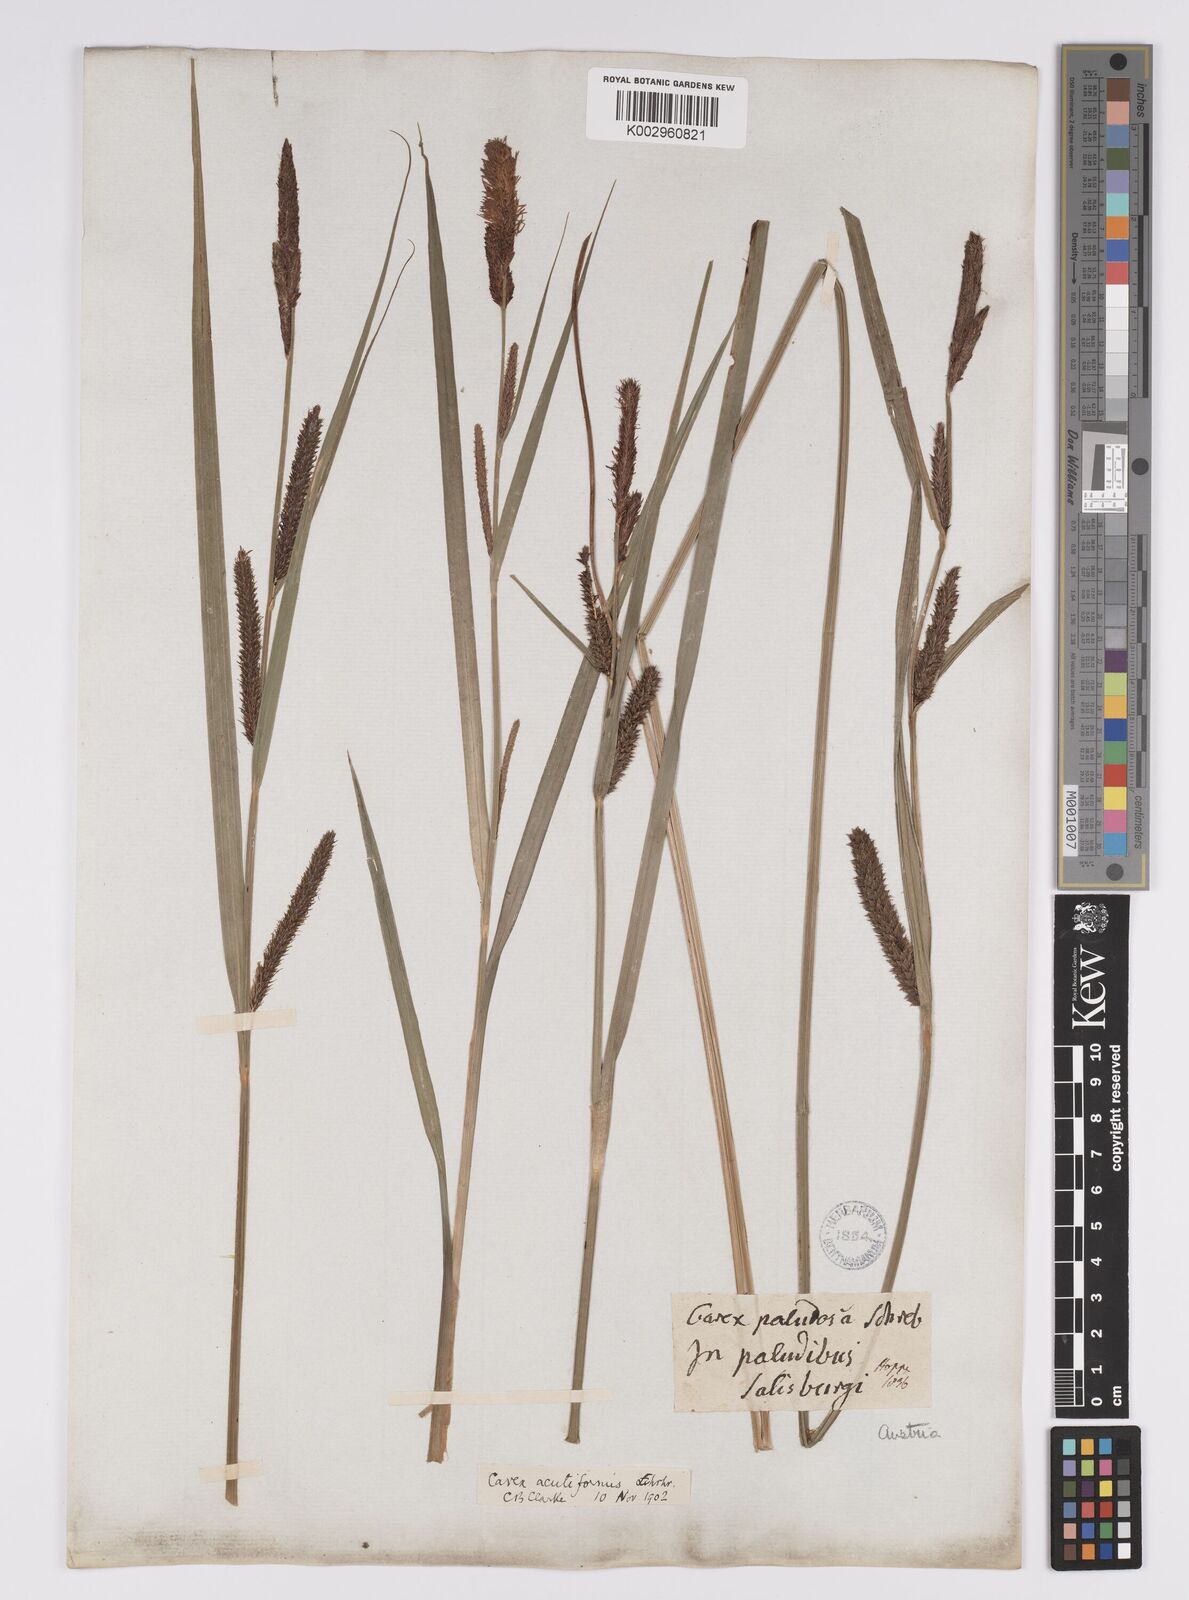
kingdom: Plantae
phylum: Tracheophyta
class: Liliopsida
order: Poales
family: Cyperaceae
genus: Carex
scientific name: Carex acutiformis
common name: Lesser pond-sedge
